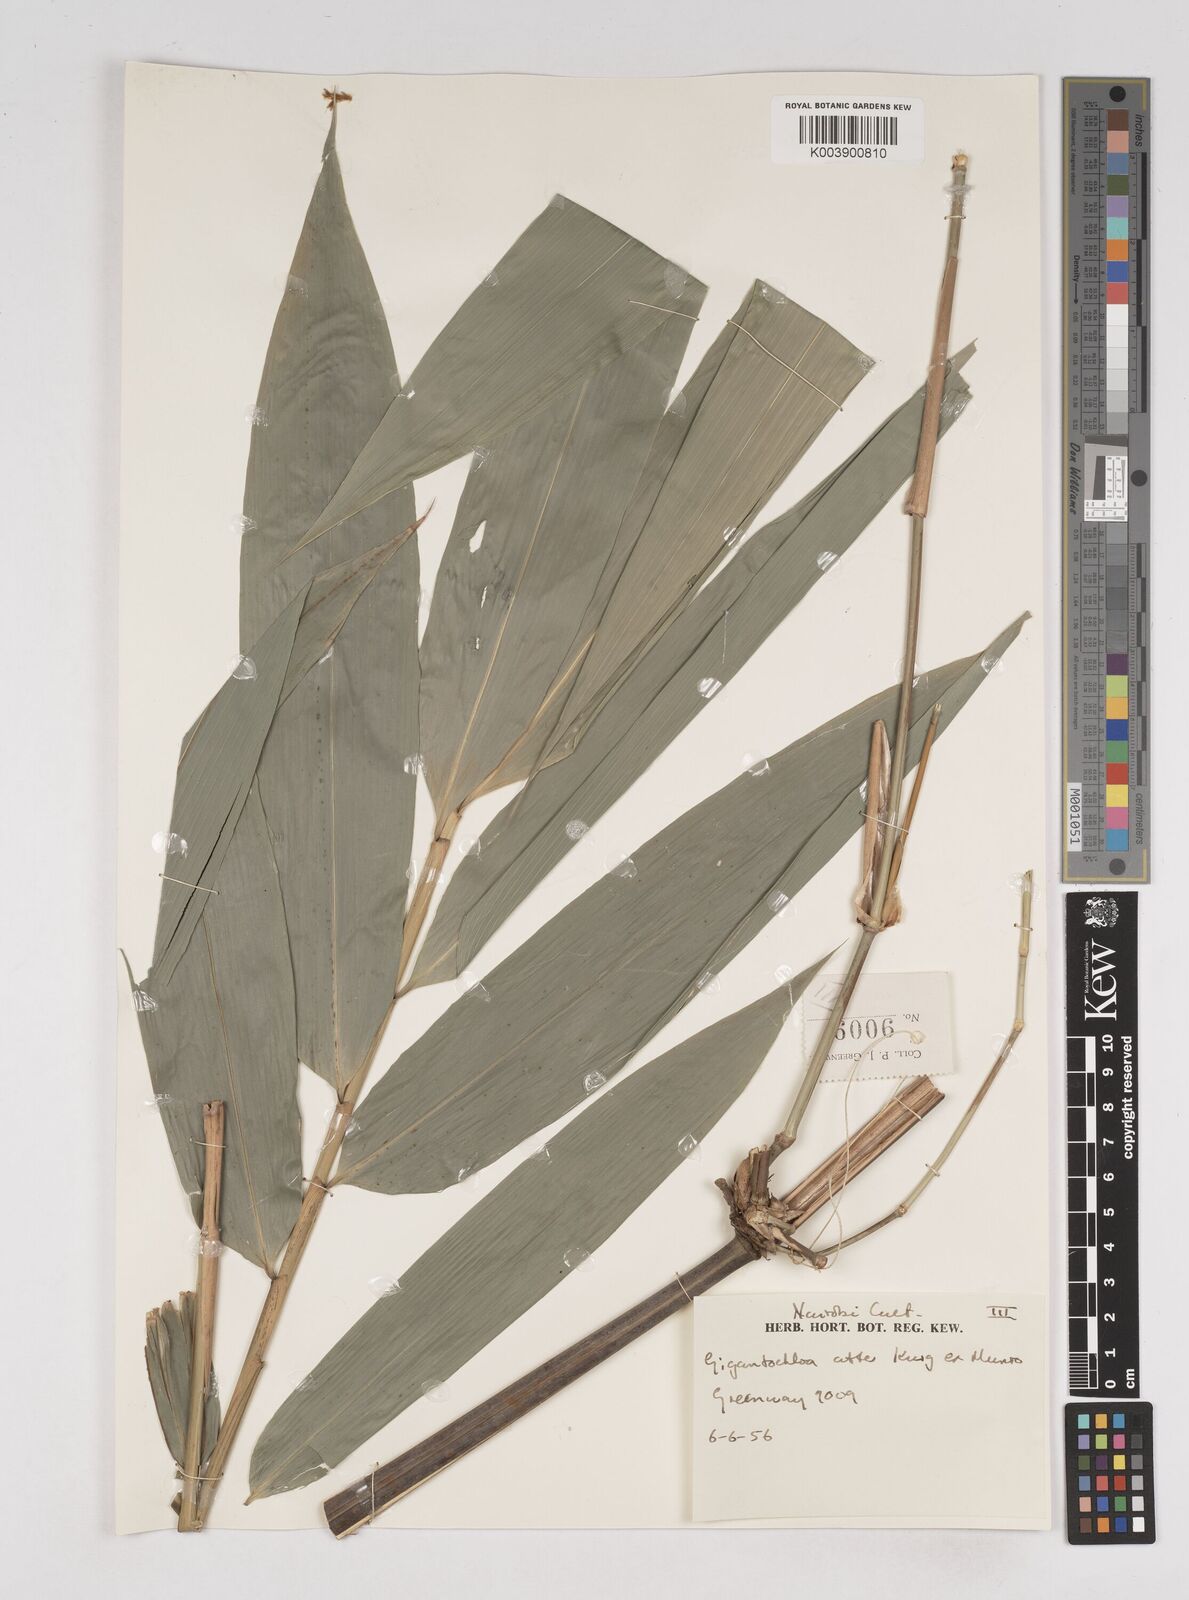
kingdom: Plantae
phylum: Tracheophyta
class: Liliopsida
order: Poales
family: Poaceae
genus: Gigantochloa
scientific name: Gigantochloa atter
